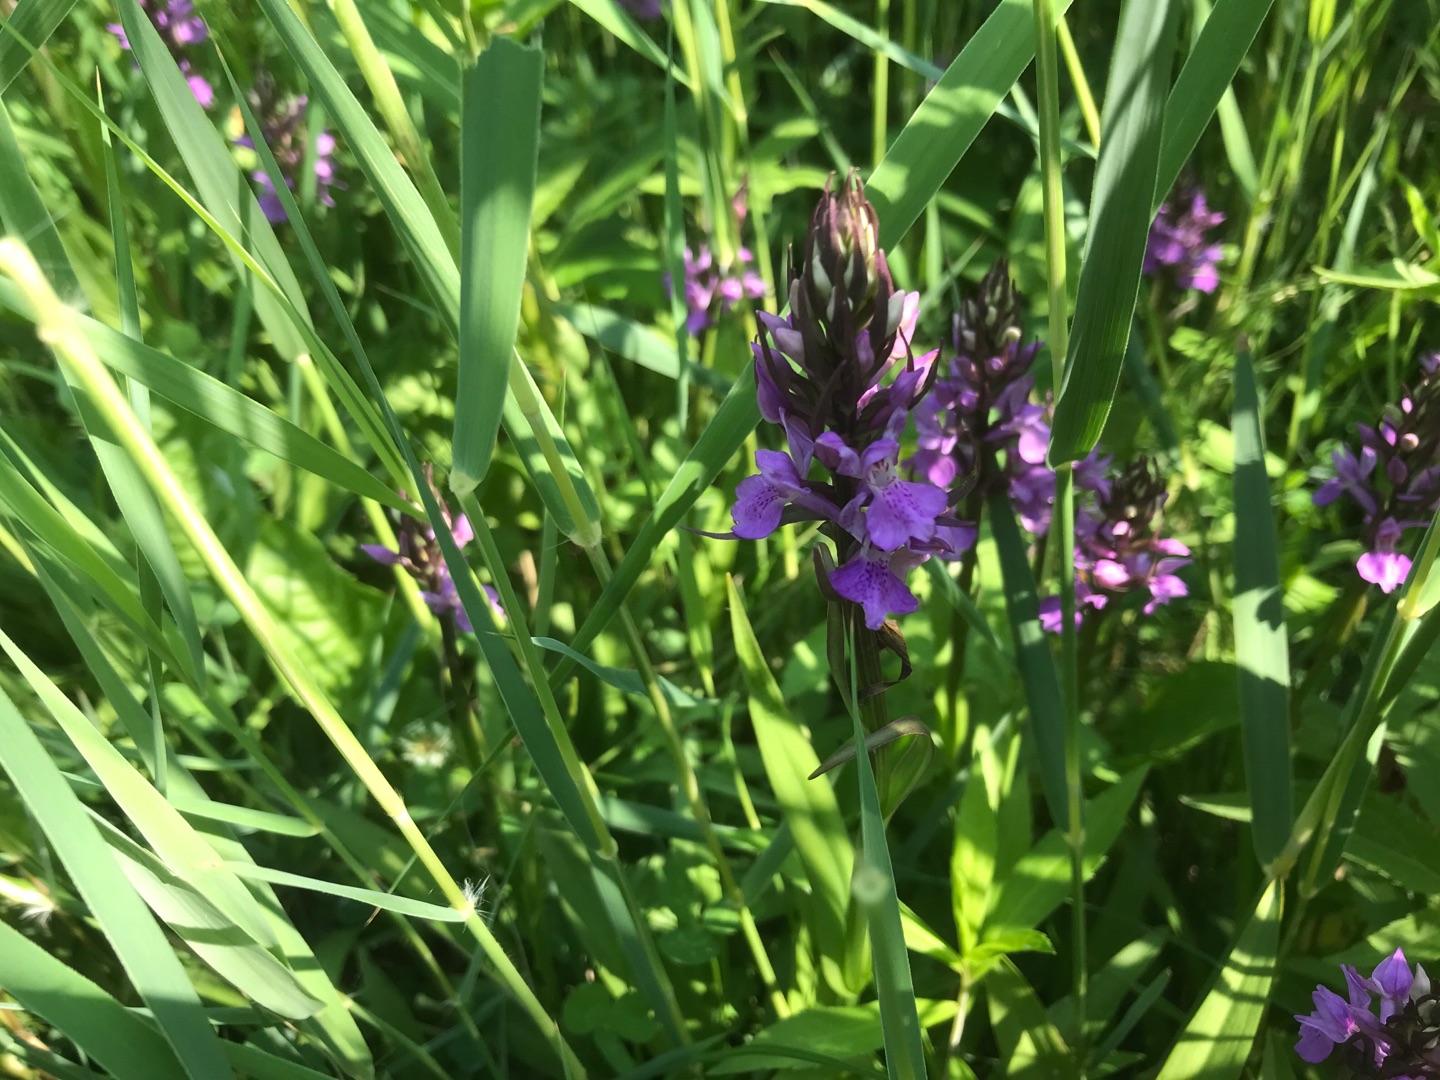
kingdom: Plantae
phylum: Tracheophyta
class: Liliopsida
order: Asparagales
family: Orchidaceae
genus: Dactylorhiza
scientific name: Dactylorhiza majalis
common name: Priklæbet gøgeurt
